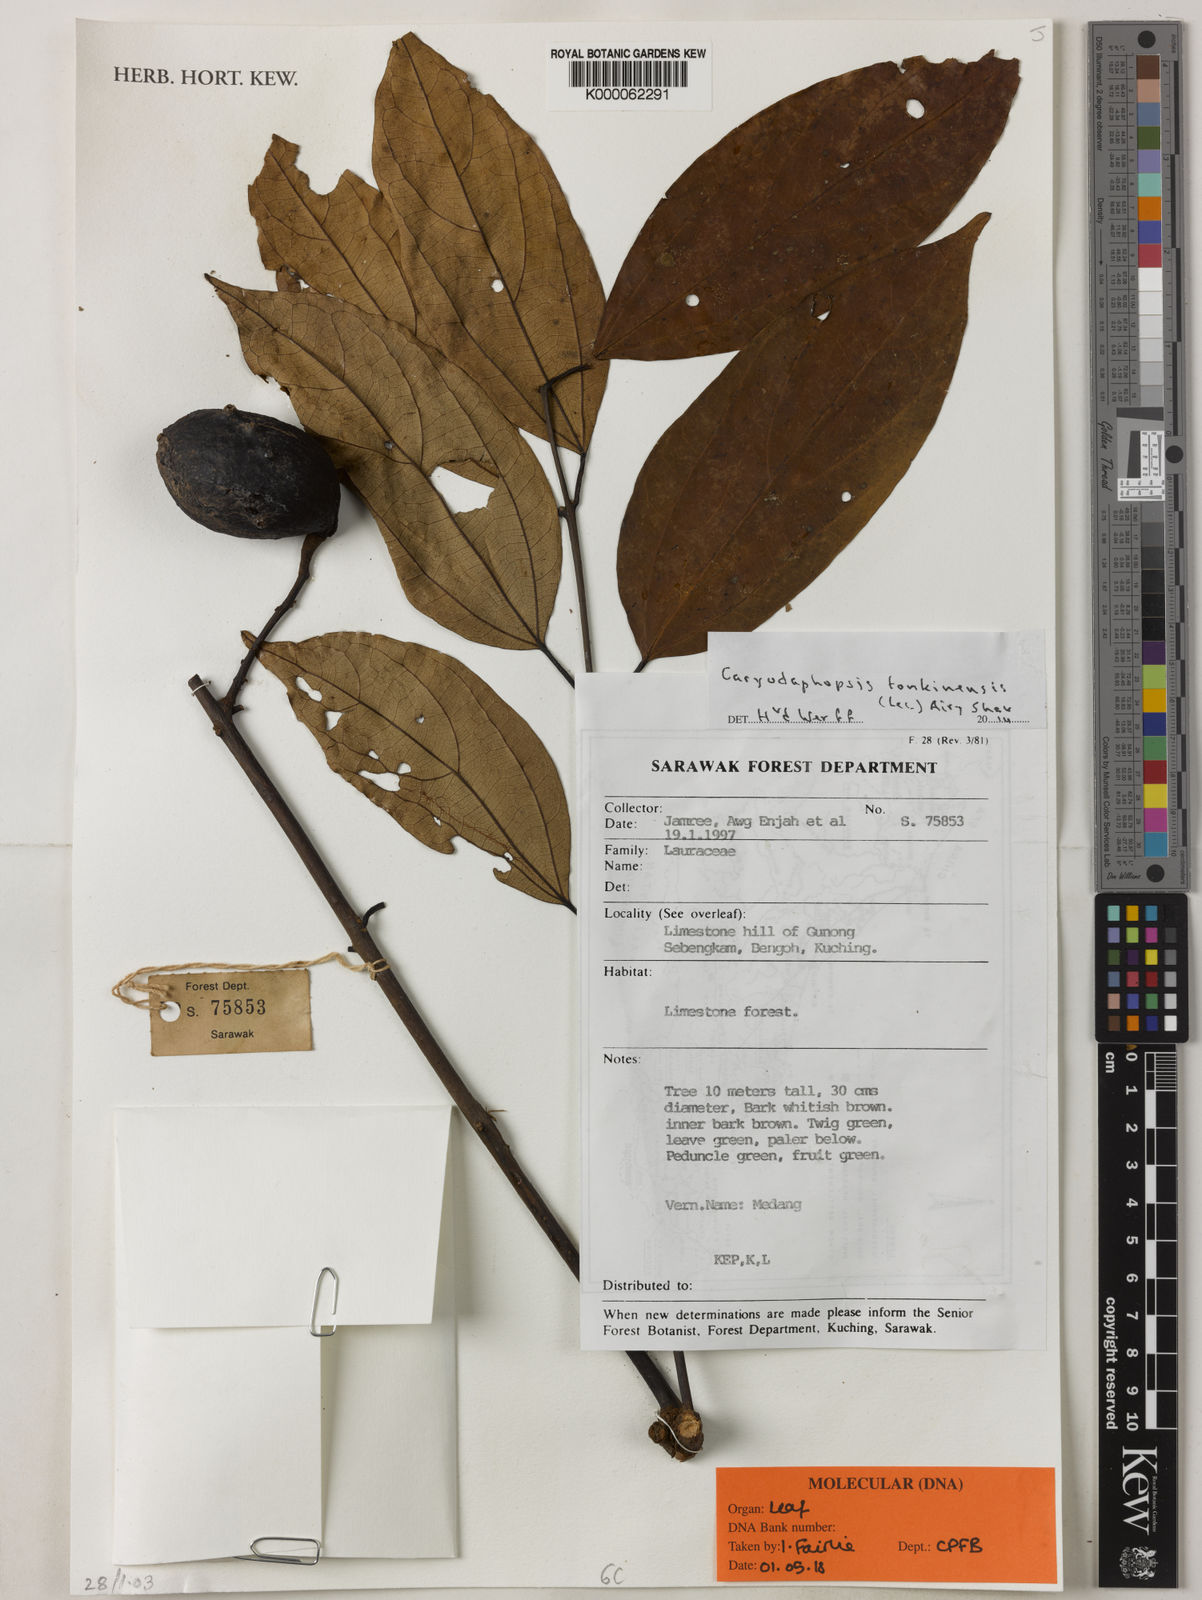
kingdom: Plantae
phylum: Tracheophyta
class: Magnoliopsida
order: Laurales
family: Lauraceae
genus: Caryodaphnopsis
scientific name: Caryodaphnopsis
